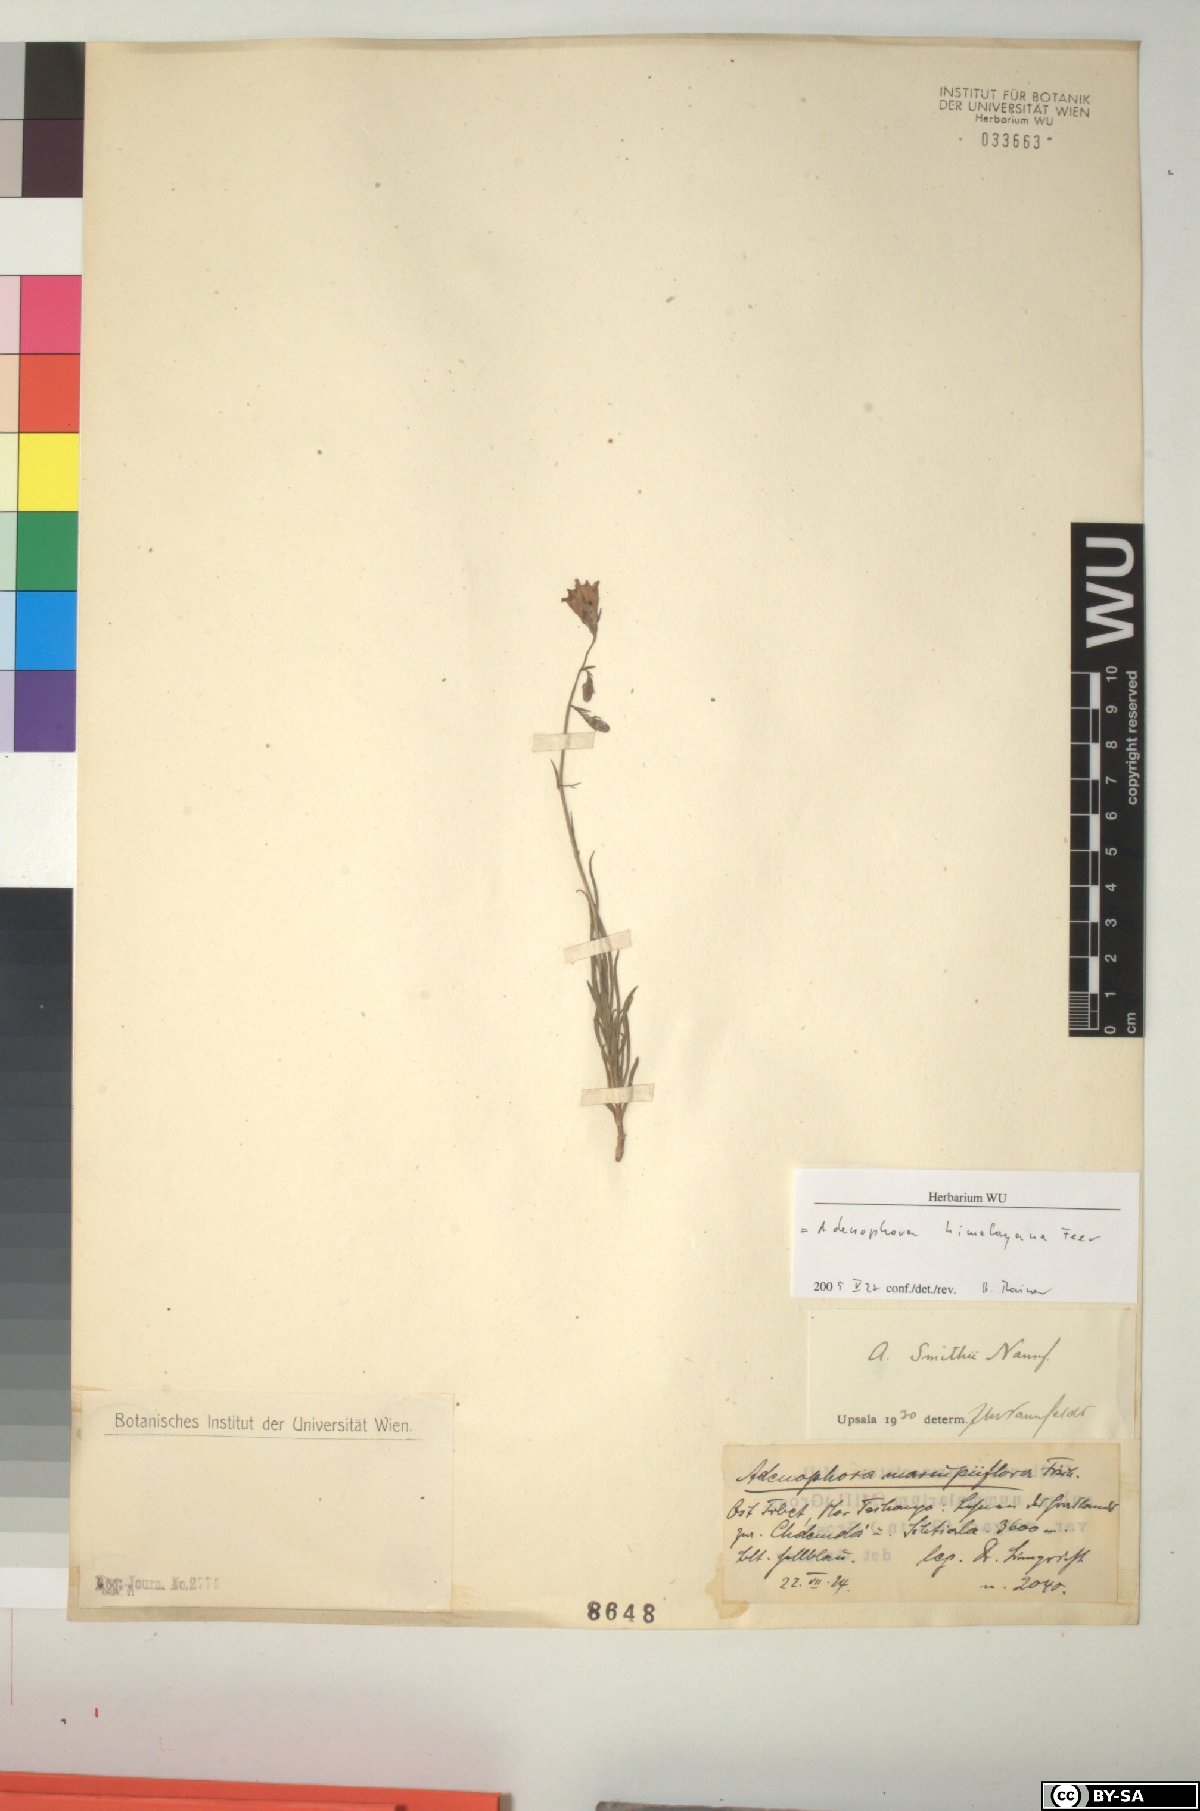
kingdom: Plantae
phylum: Tracheophyta
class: Magnoliopsida
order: Asterales
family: Campanulaceae
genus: Adenophora
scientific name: Adenophora himalayana
